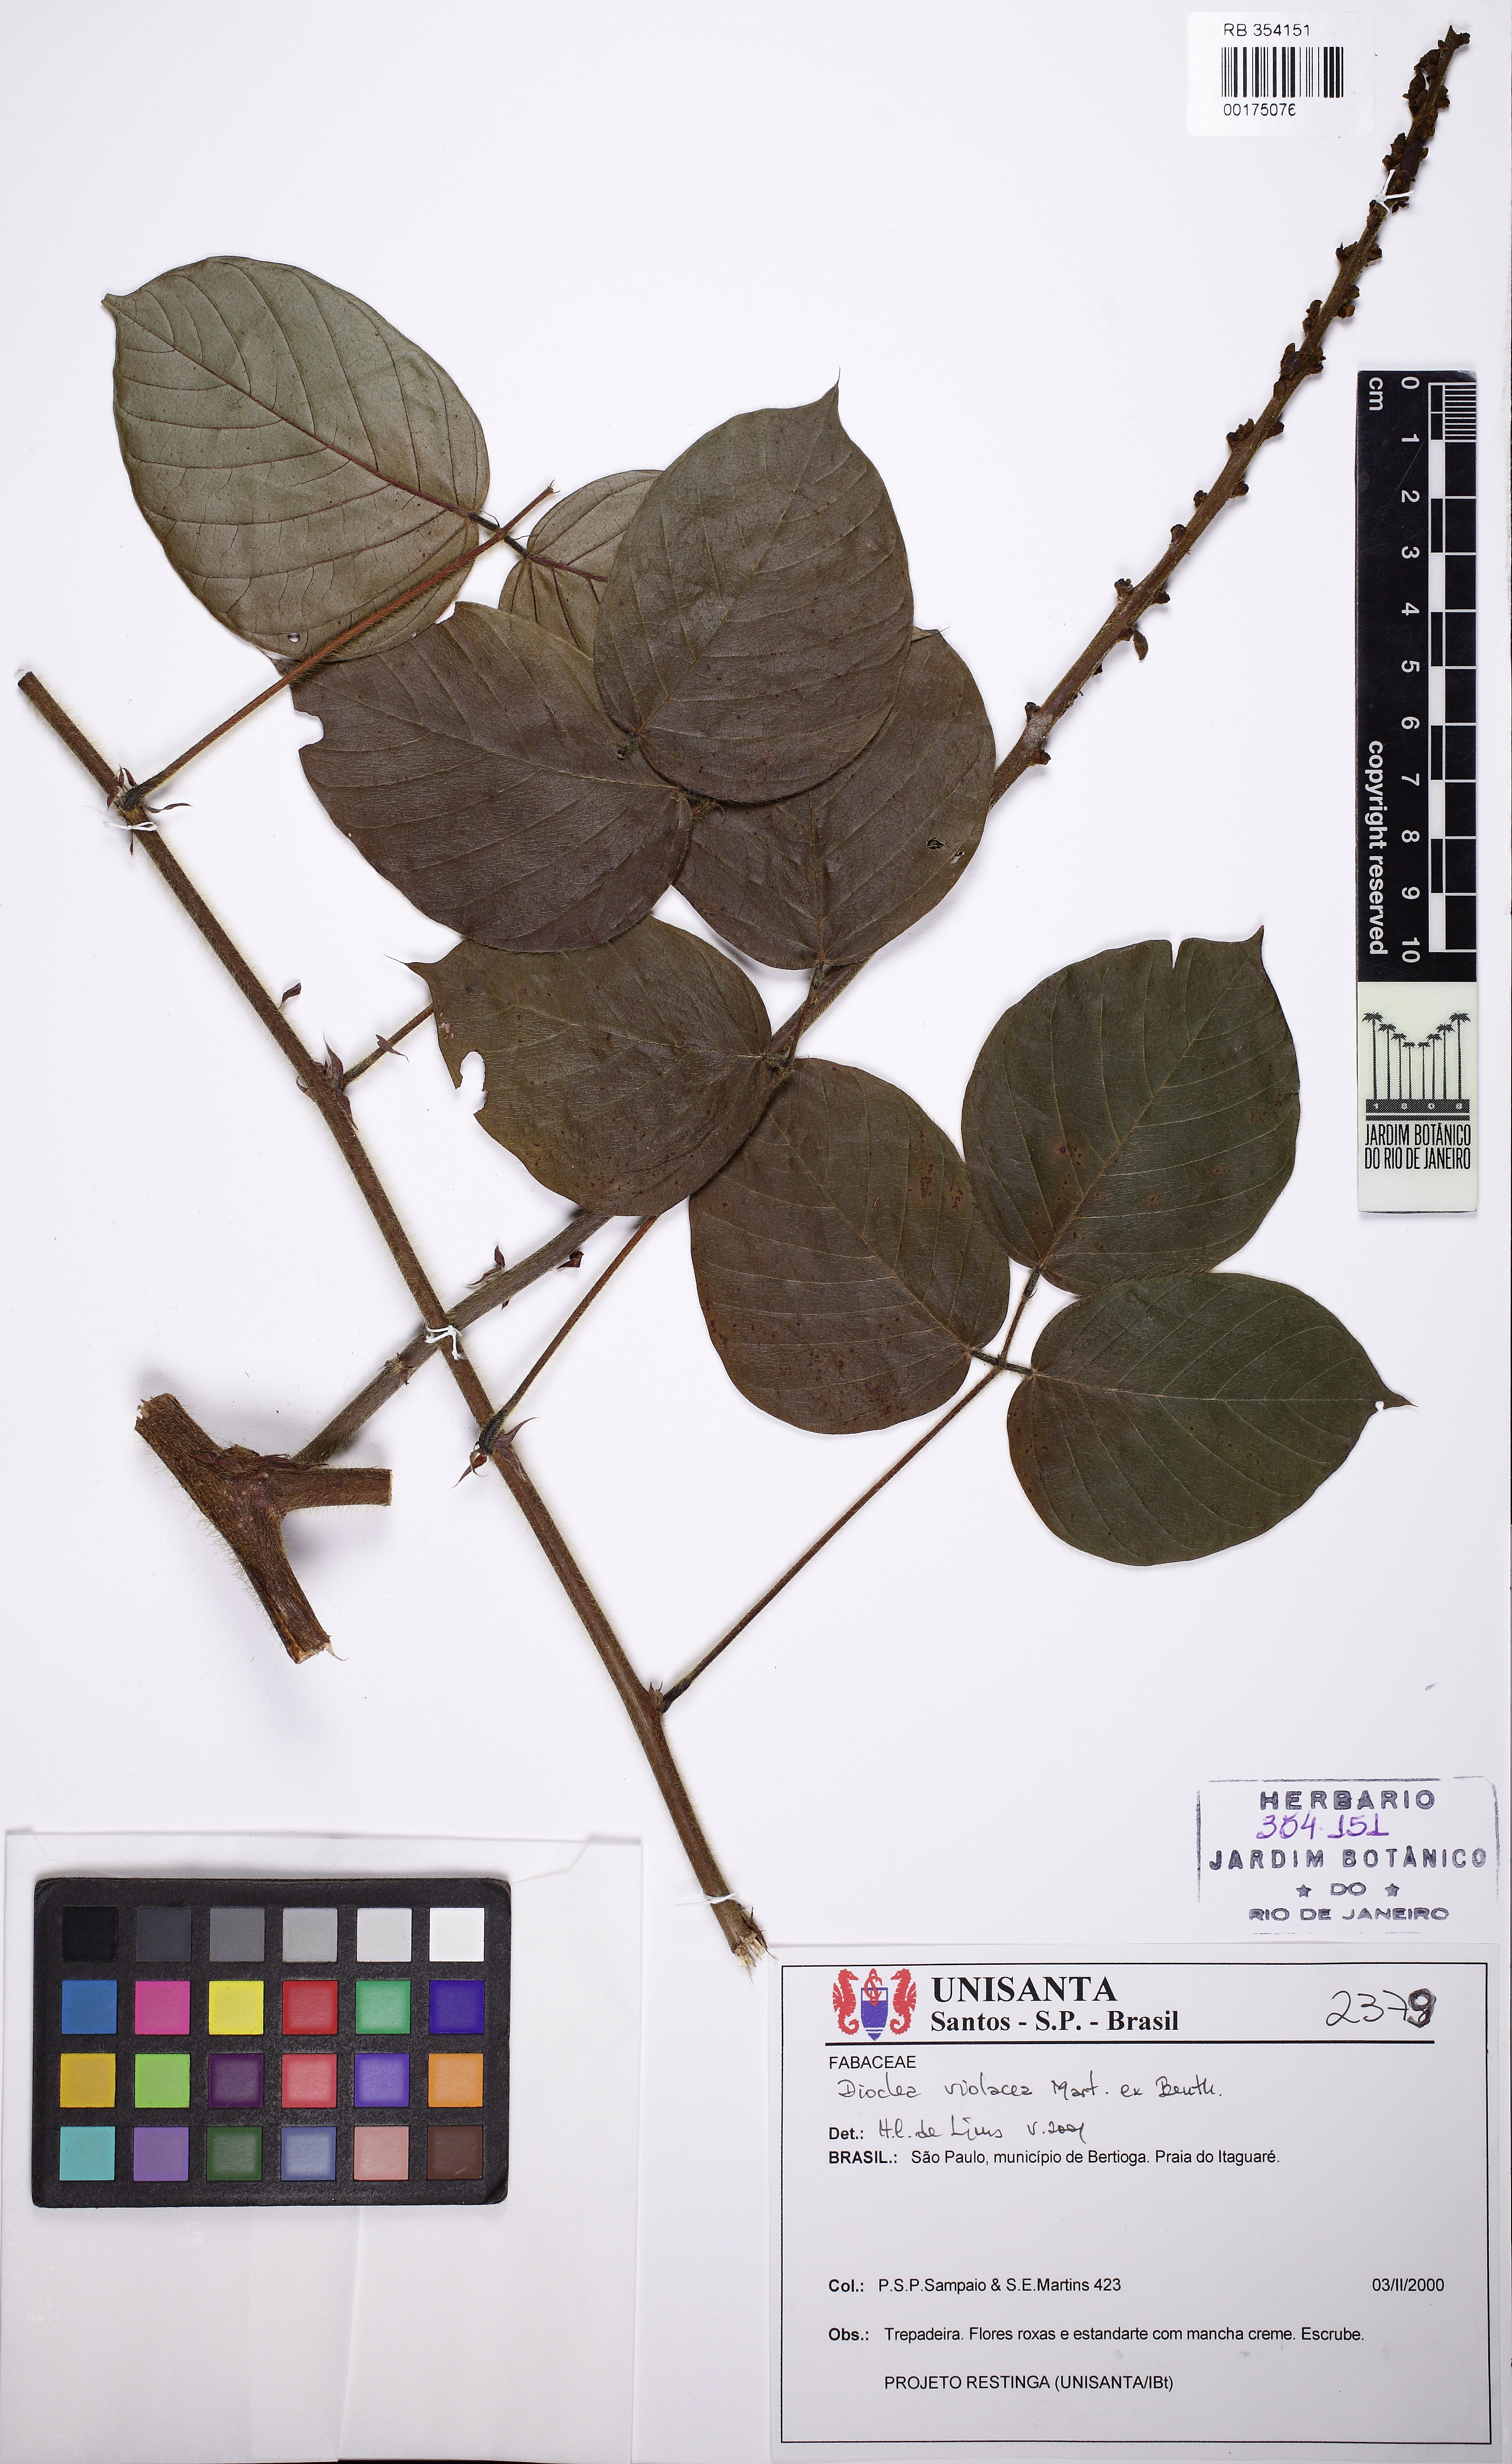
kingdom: Plantae
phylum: Tracheophyta
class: Magnoliopsida
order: Fabales
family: Fabaceae
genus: Macropsychanthus
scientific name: Macropsychanthus violaceus
